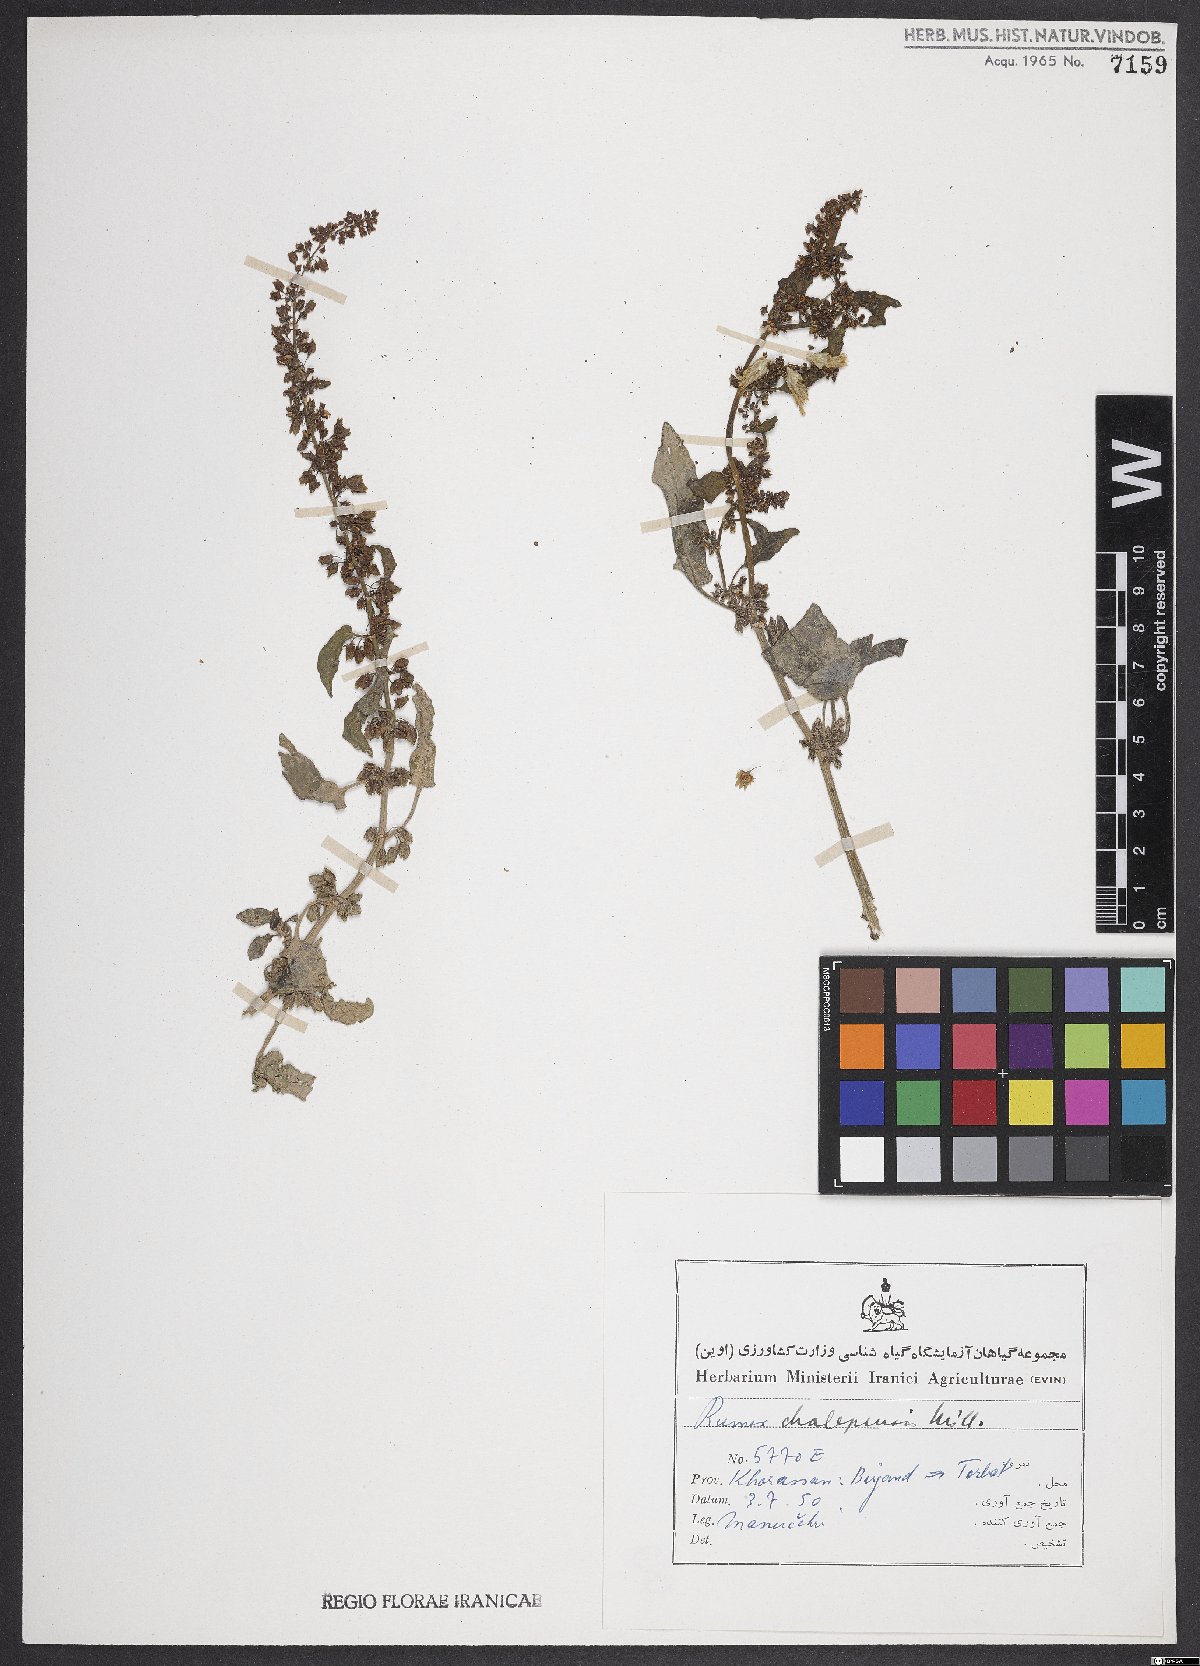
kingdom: Plantae
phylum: Tracheophyta
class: Magnoliopsida
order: Caryophyllales
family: Polygonaceae
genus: Rumex
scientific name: Rumex chalepensis
